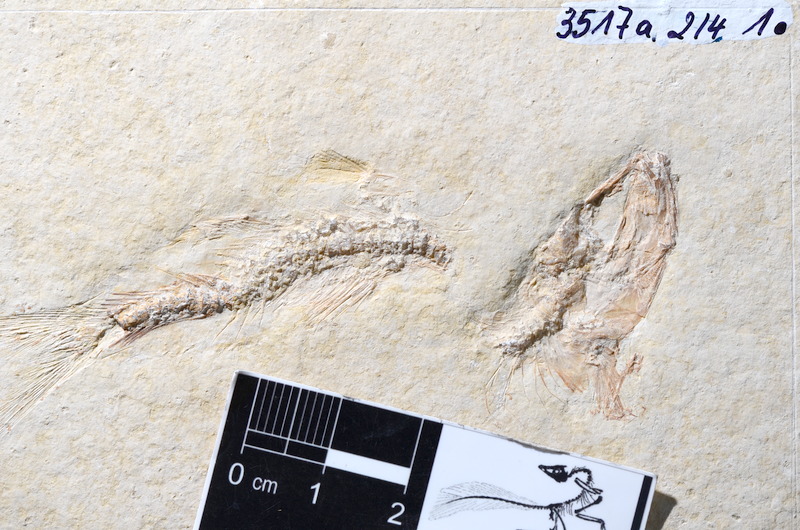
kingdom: Animalia
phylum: Chordata
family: Ascalaboidae
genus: Tharsis
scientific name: Tharsis dubius
